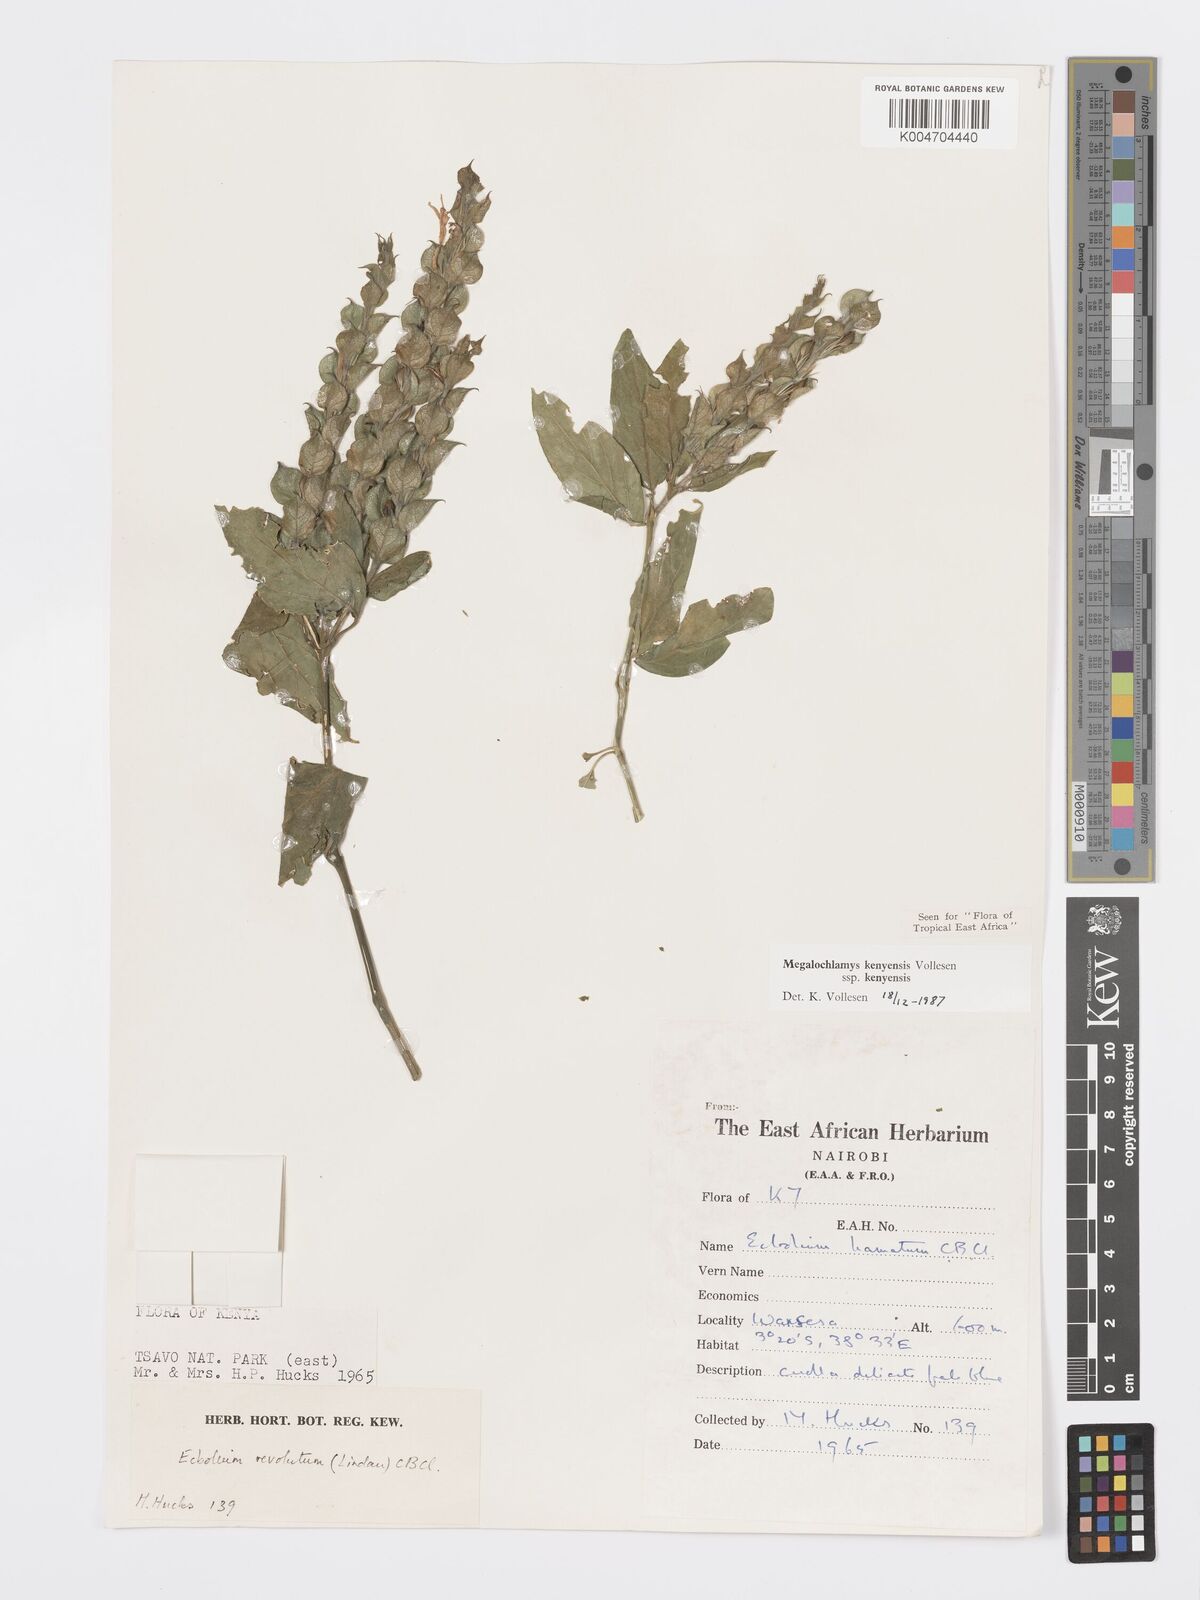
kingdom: Plantae
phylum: Tracheophyta
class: Magnoliopsida
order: Lamiales
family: Acanthaceae
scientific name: Acanthaceae
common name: Acanthaceae
